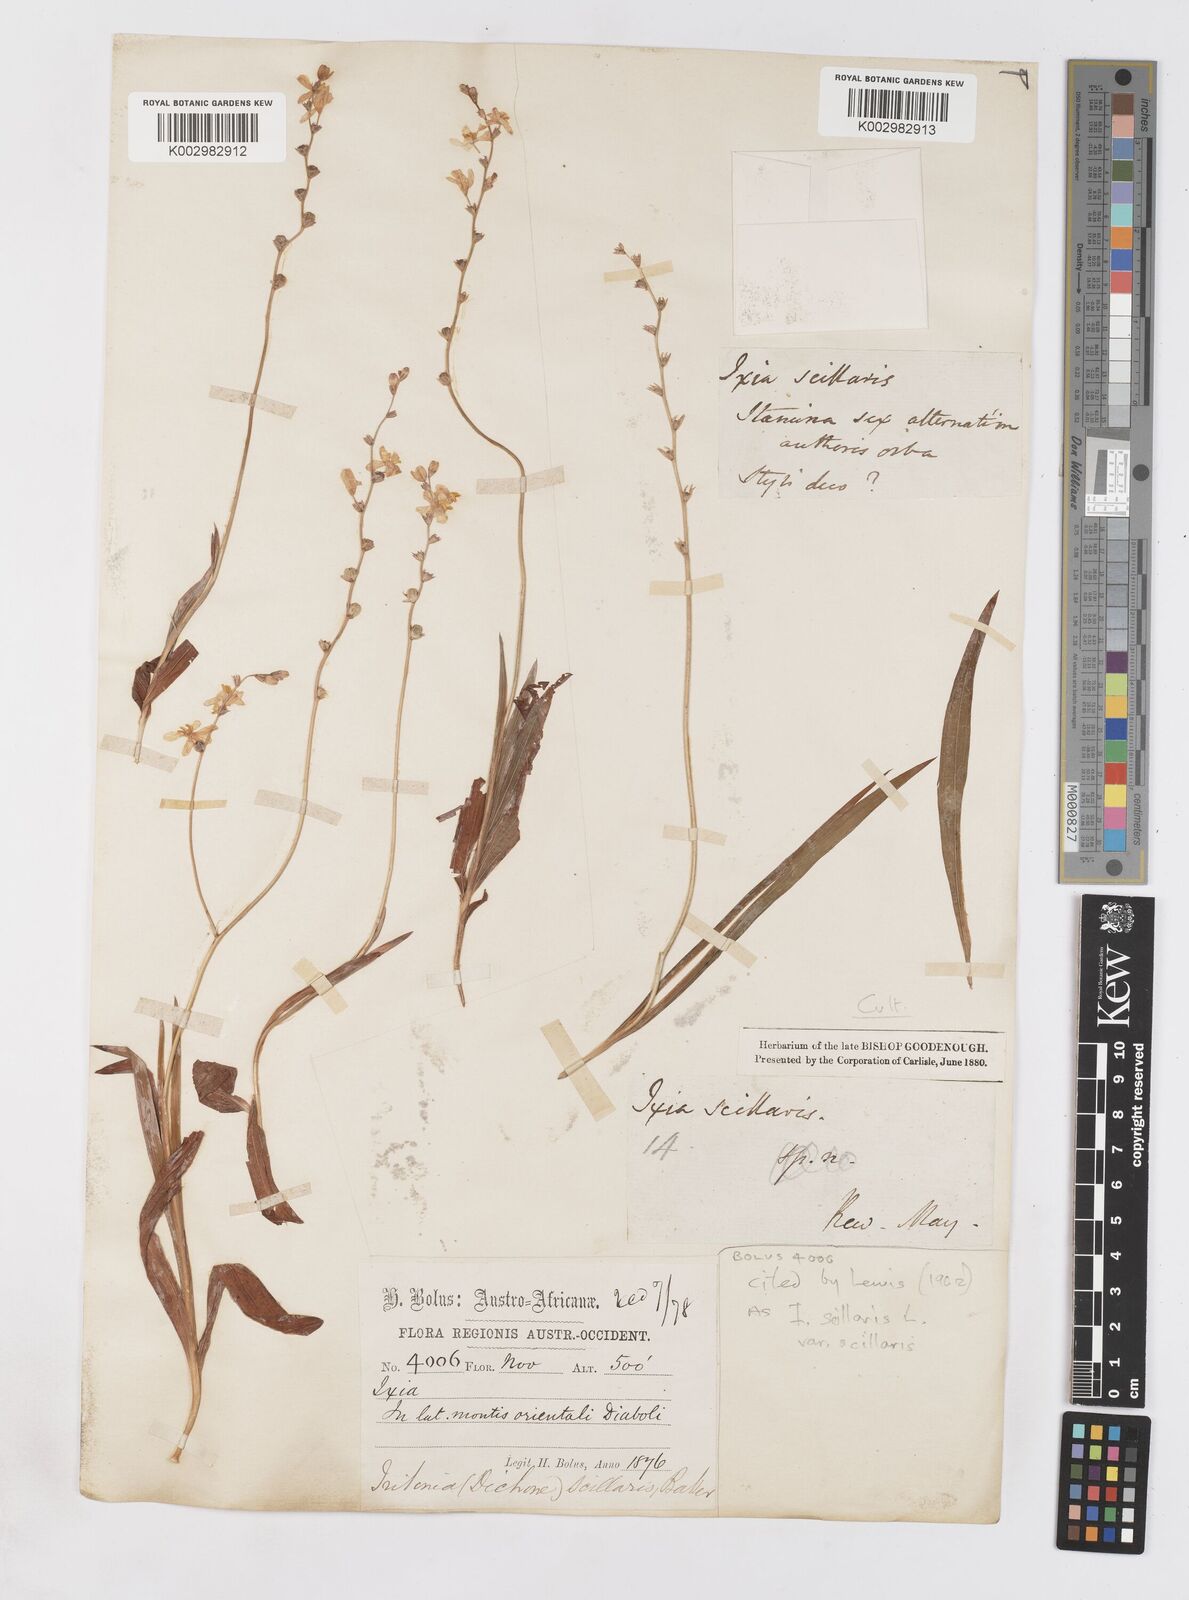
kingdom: Plantae
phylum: Tracheophyta
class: Liliopsida
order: Asparagales
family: Iridaceae
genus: Ixia
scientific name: Ixia scillaris
